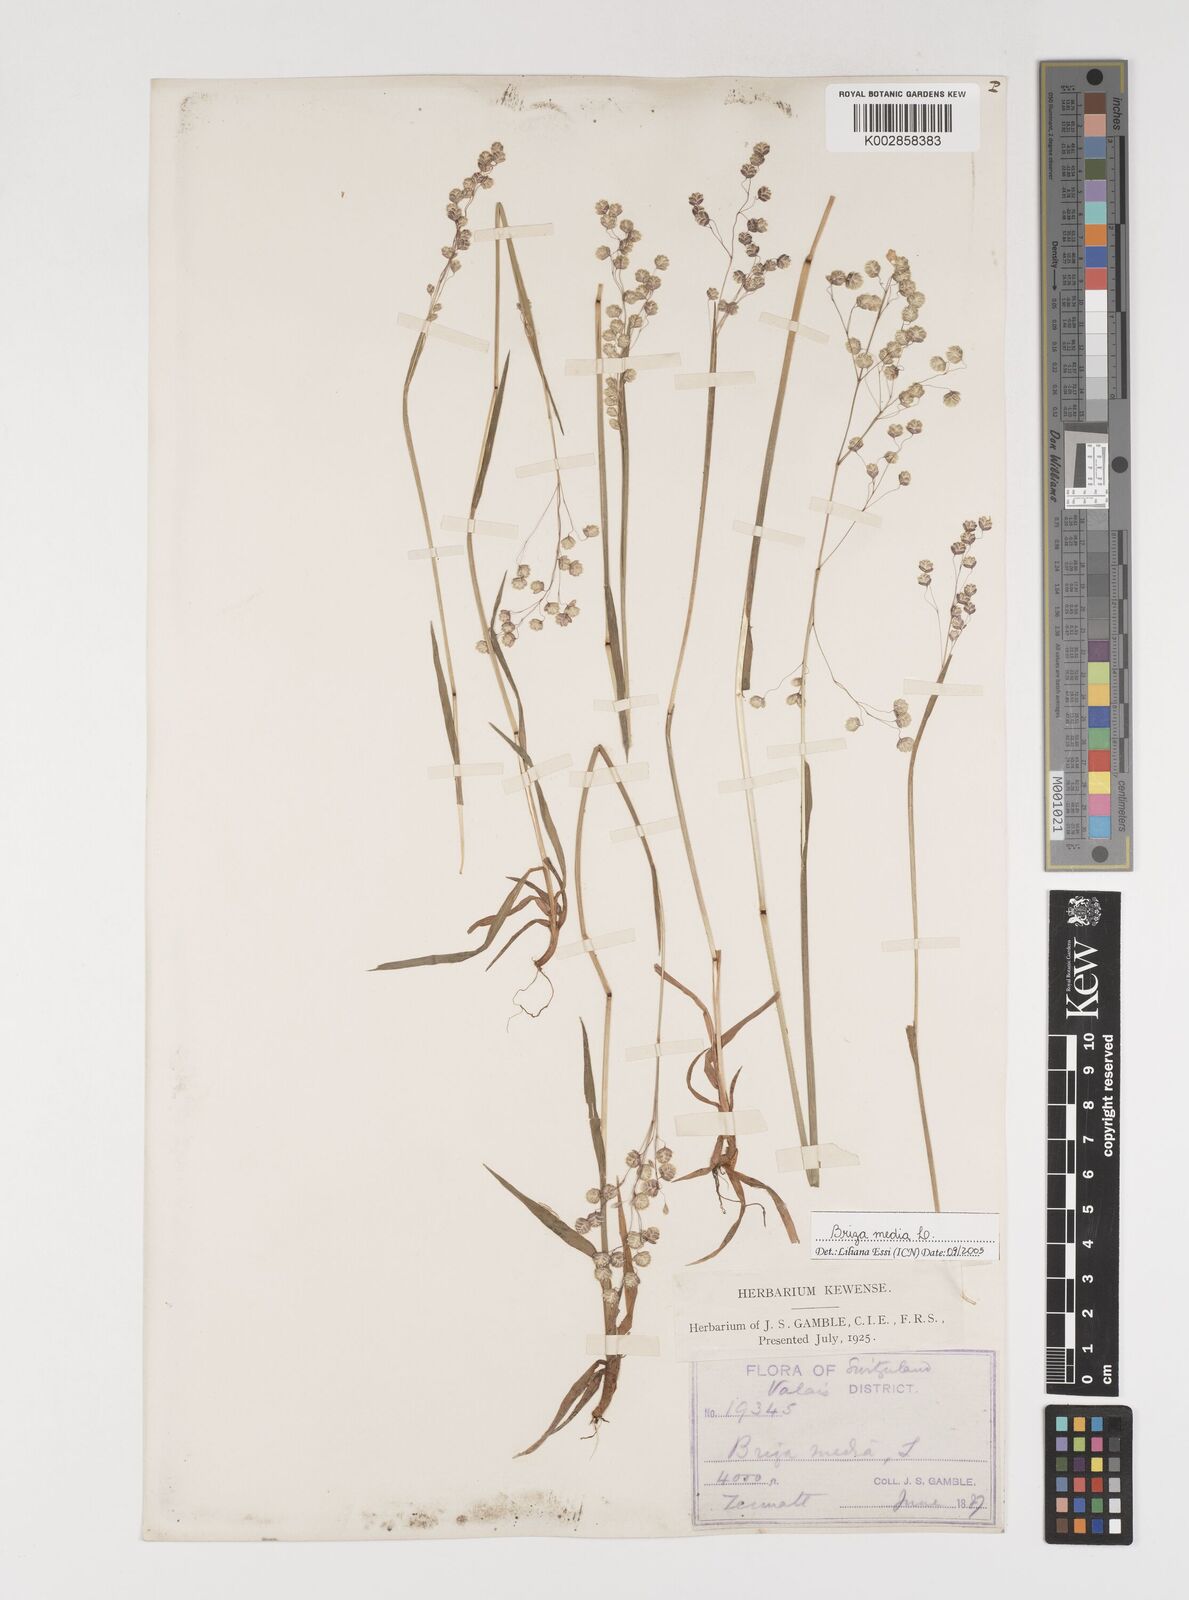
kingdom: Plantae
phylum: Tracheophyta
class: Liliopsida
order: Poales
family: Poaceae
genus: Briza
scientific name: Briza media
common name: Quaking grass
